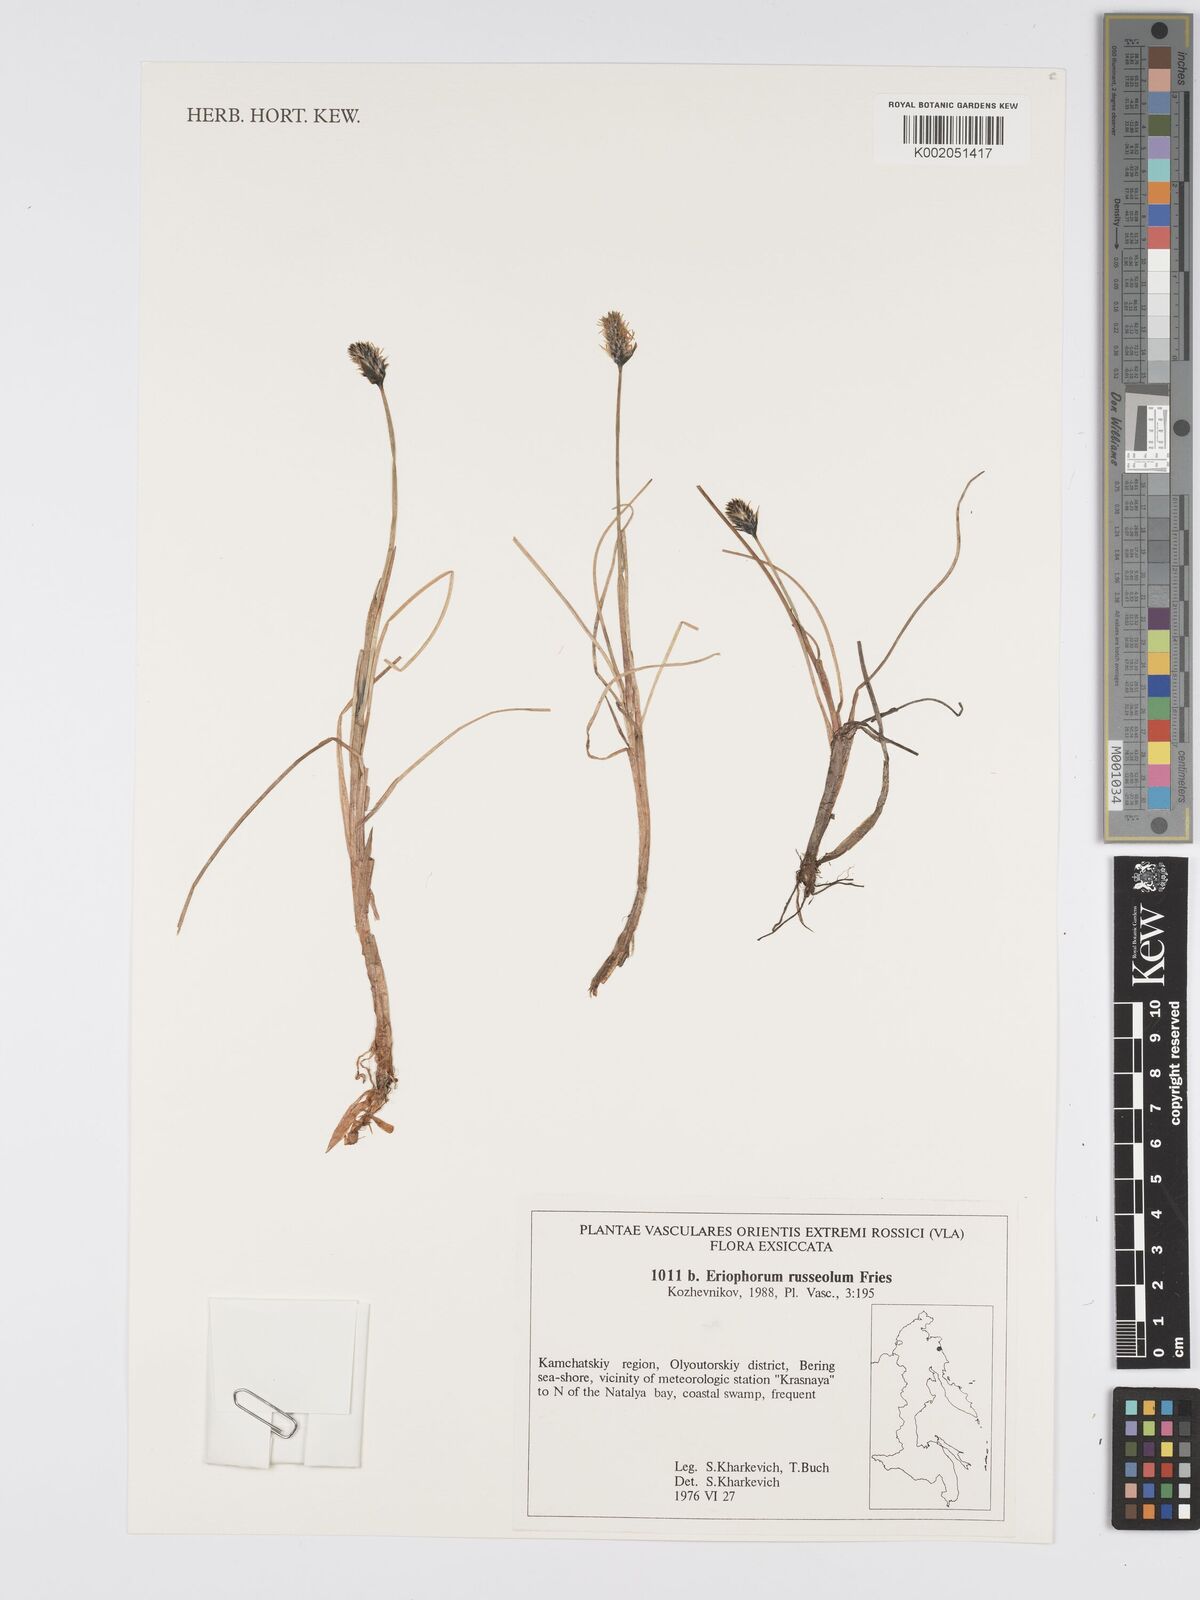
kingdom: Plantae
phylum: Tracheophyta
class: Liliopsida
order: Poales
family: Cyperaceae
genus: Eriophorum
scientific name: Eriophorum scheuchzeri
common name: Scheuchzer's cottongrass
